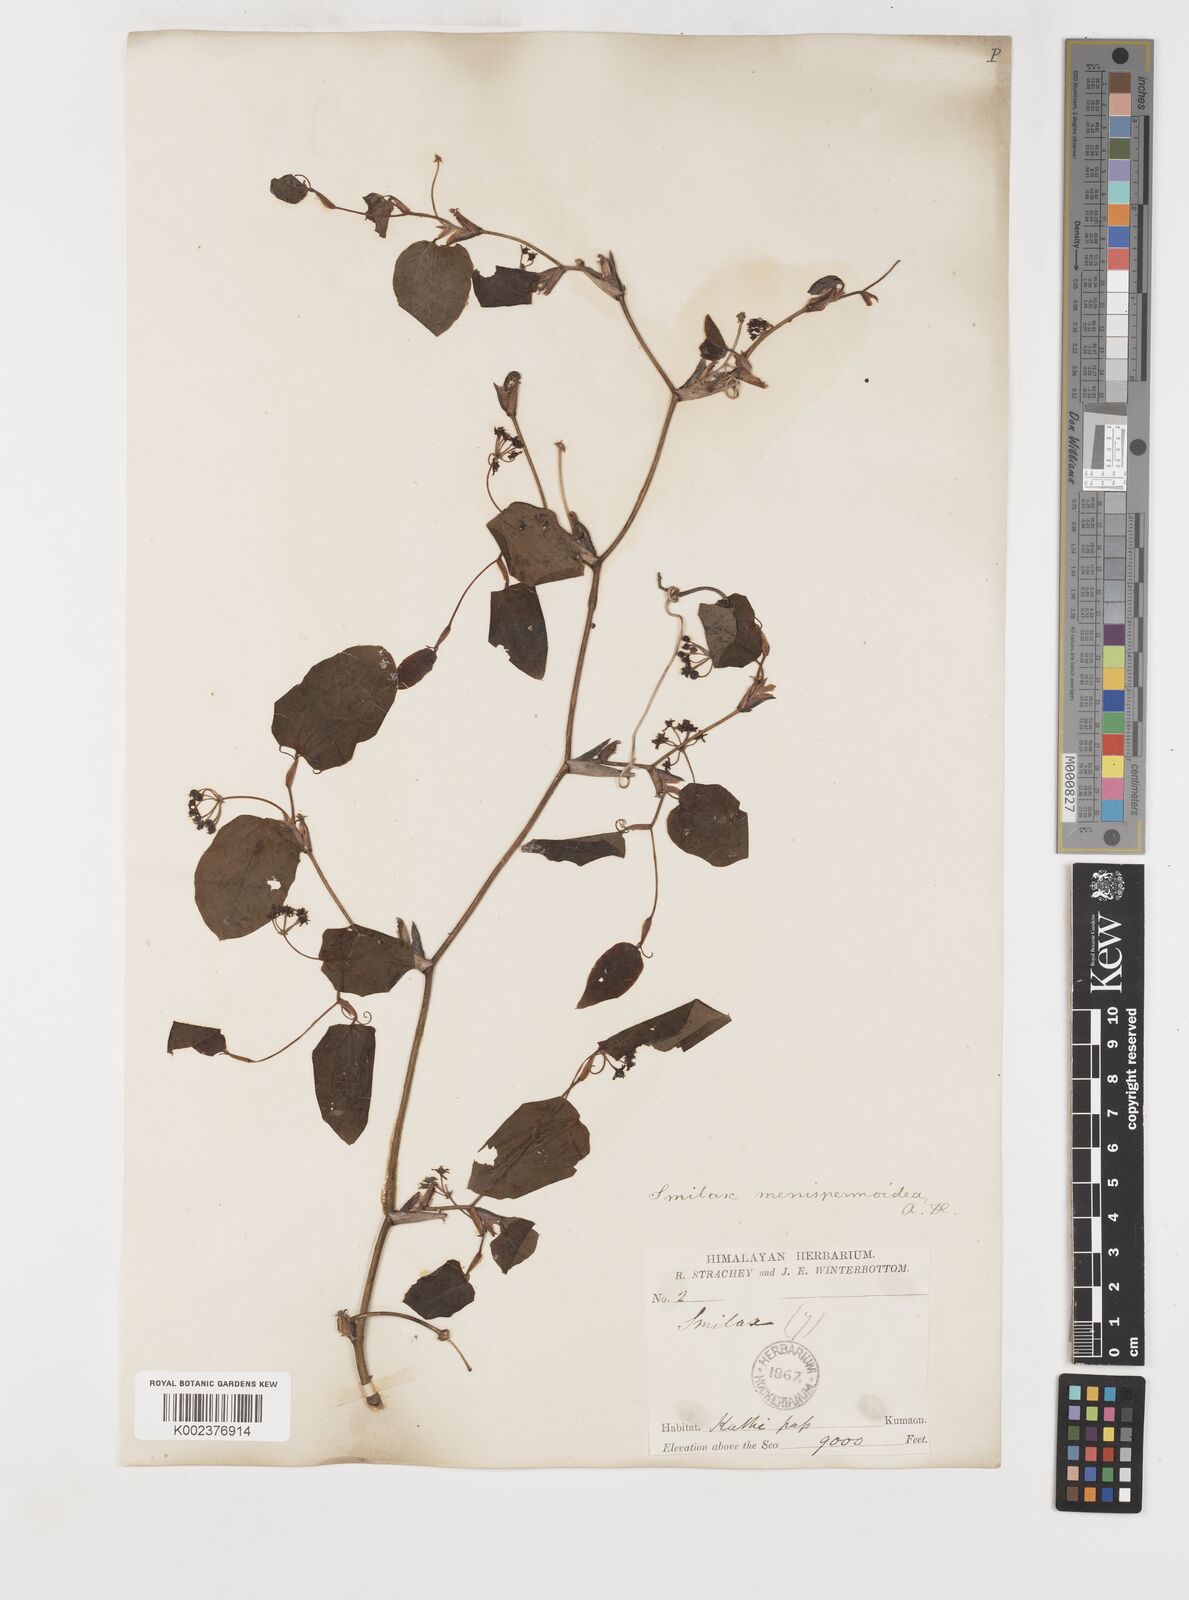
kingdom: Plantae
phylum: Tracheophyta
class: Liliopsida
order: Liliales
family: Smilacaceae
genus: Smilax
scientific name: Smilax menispermoidea
